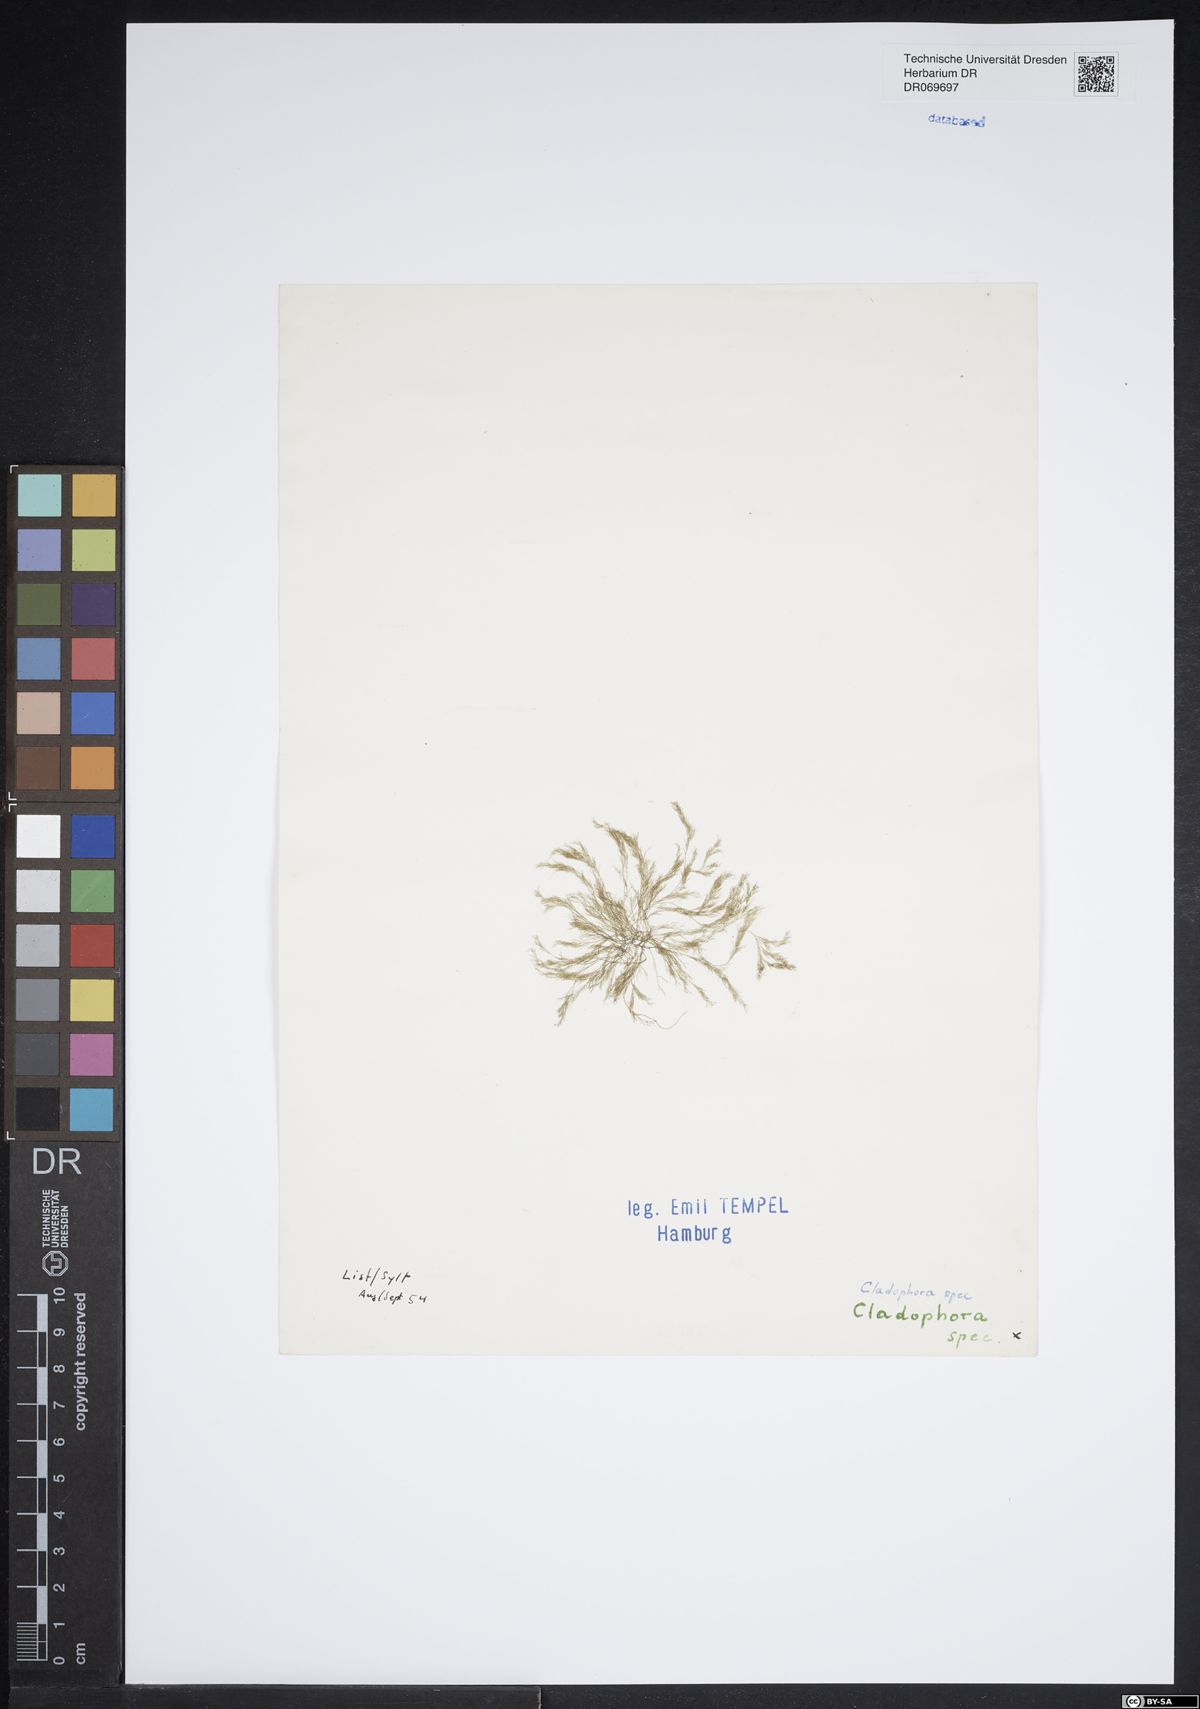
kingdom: Plantae
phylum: Chlorophyta
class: Ulvophyceae
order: Cladophorales
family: Cladophoraceae
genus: Cladophora
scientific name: Cladophora
